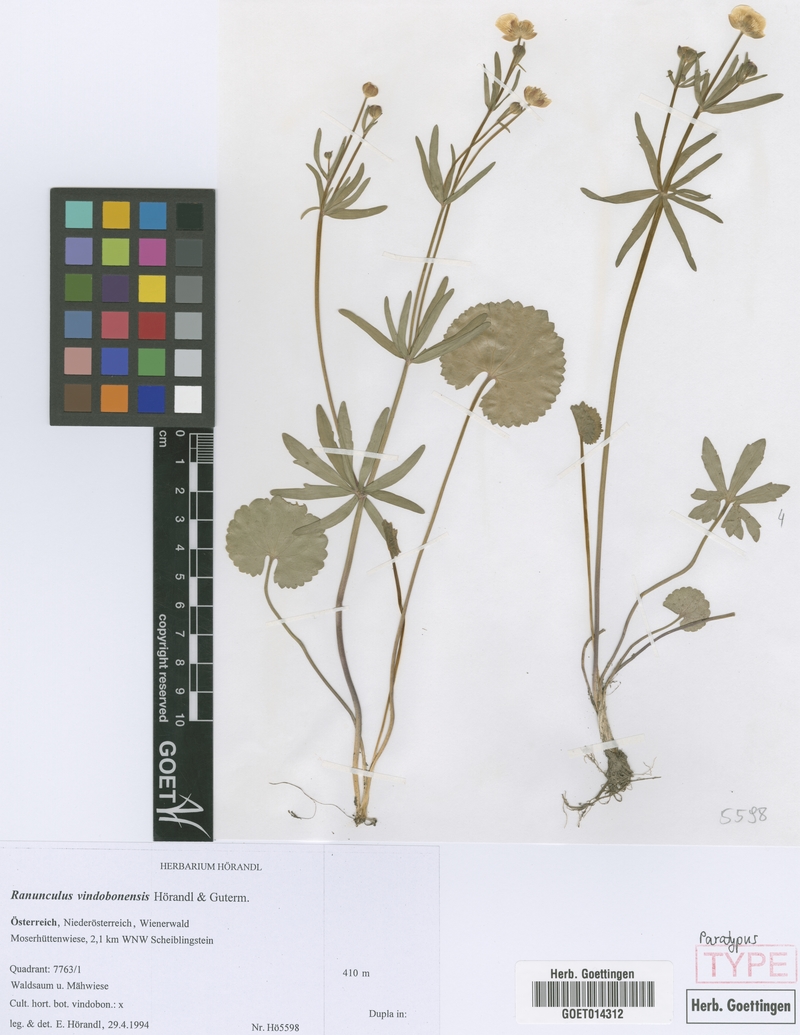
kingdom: Plantae
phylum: Tracheophyta
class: Magnoliopsida
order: Ranunculales
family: Ranunculaceae
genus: Ranunculus
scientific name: Ranunculus vindobonensis
